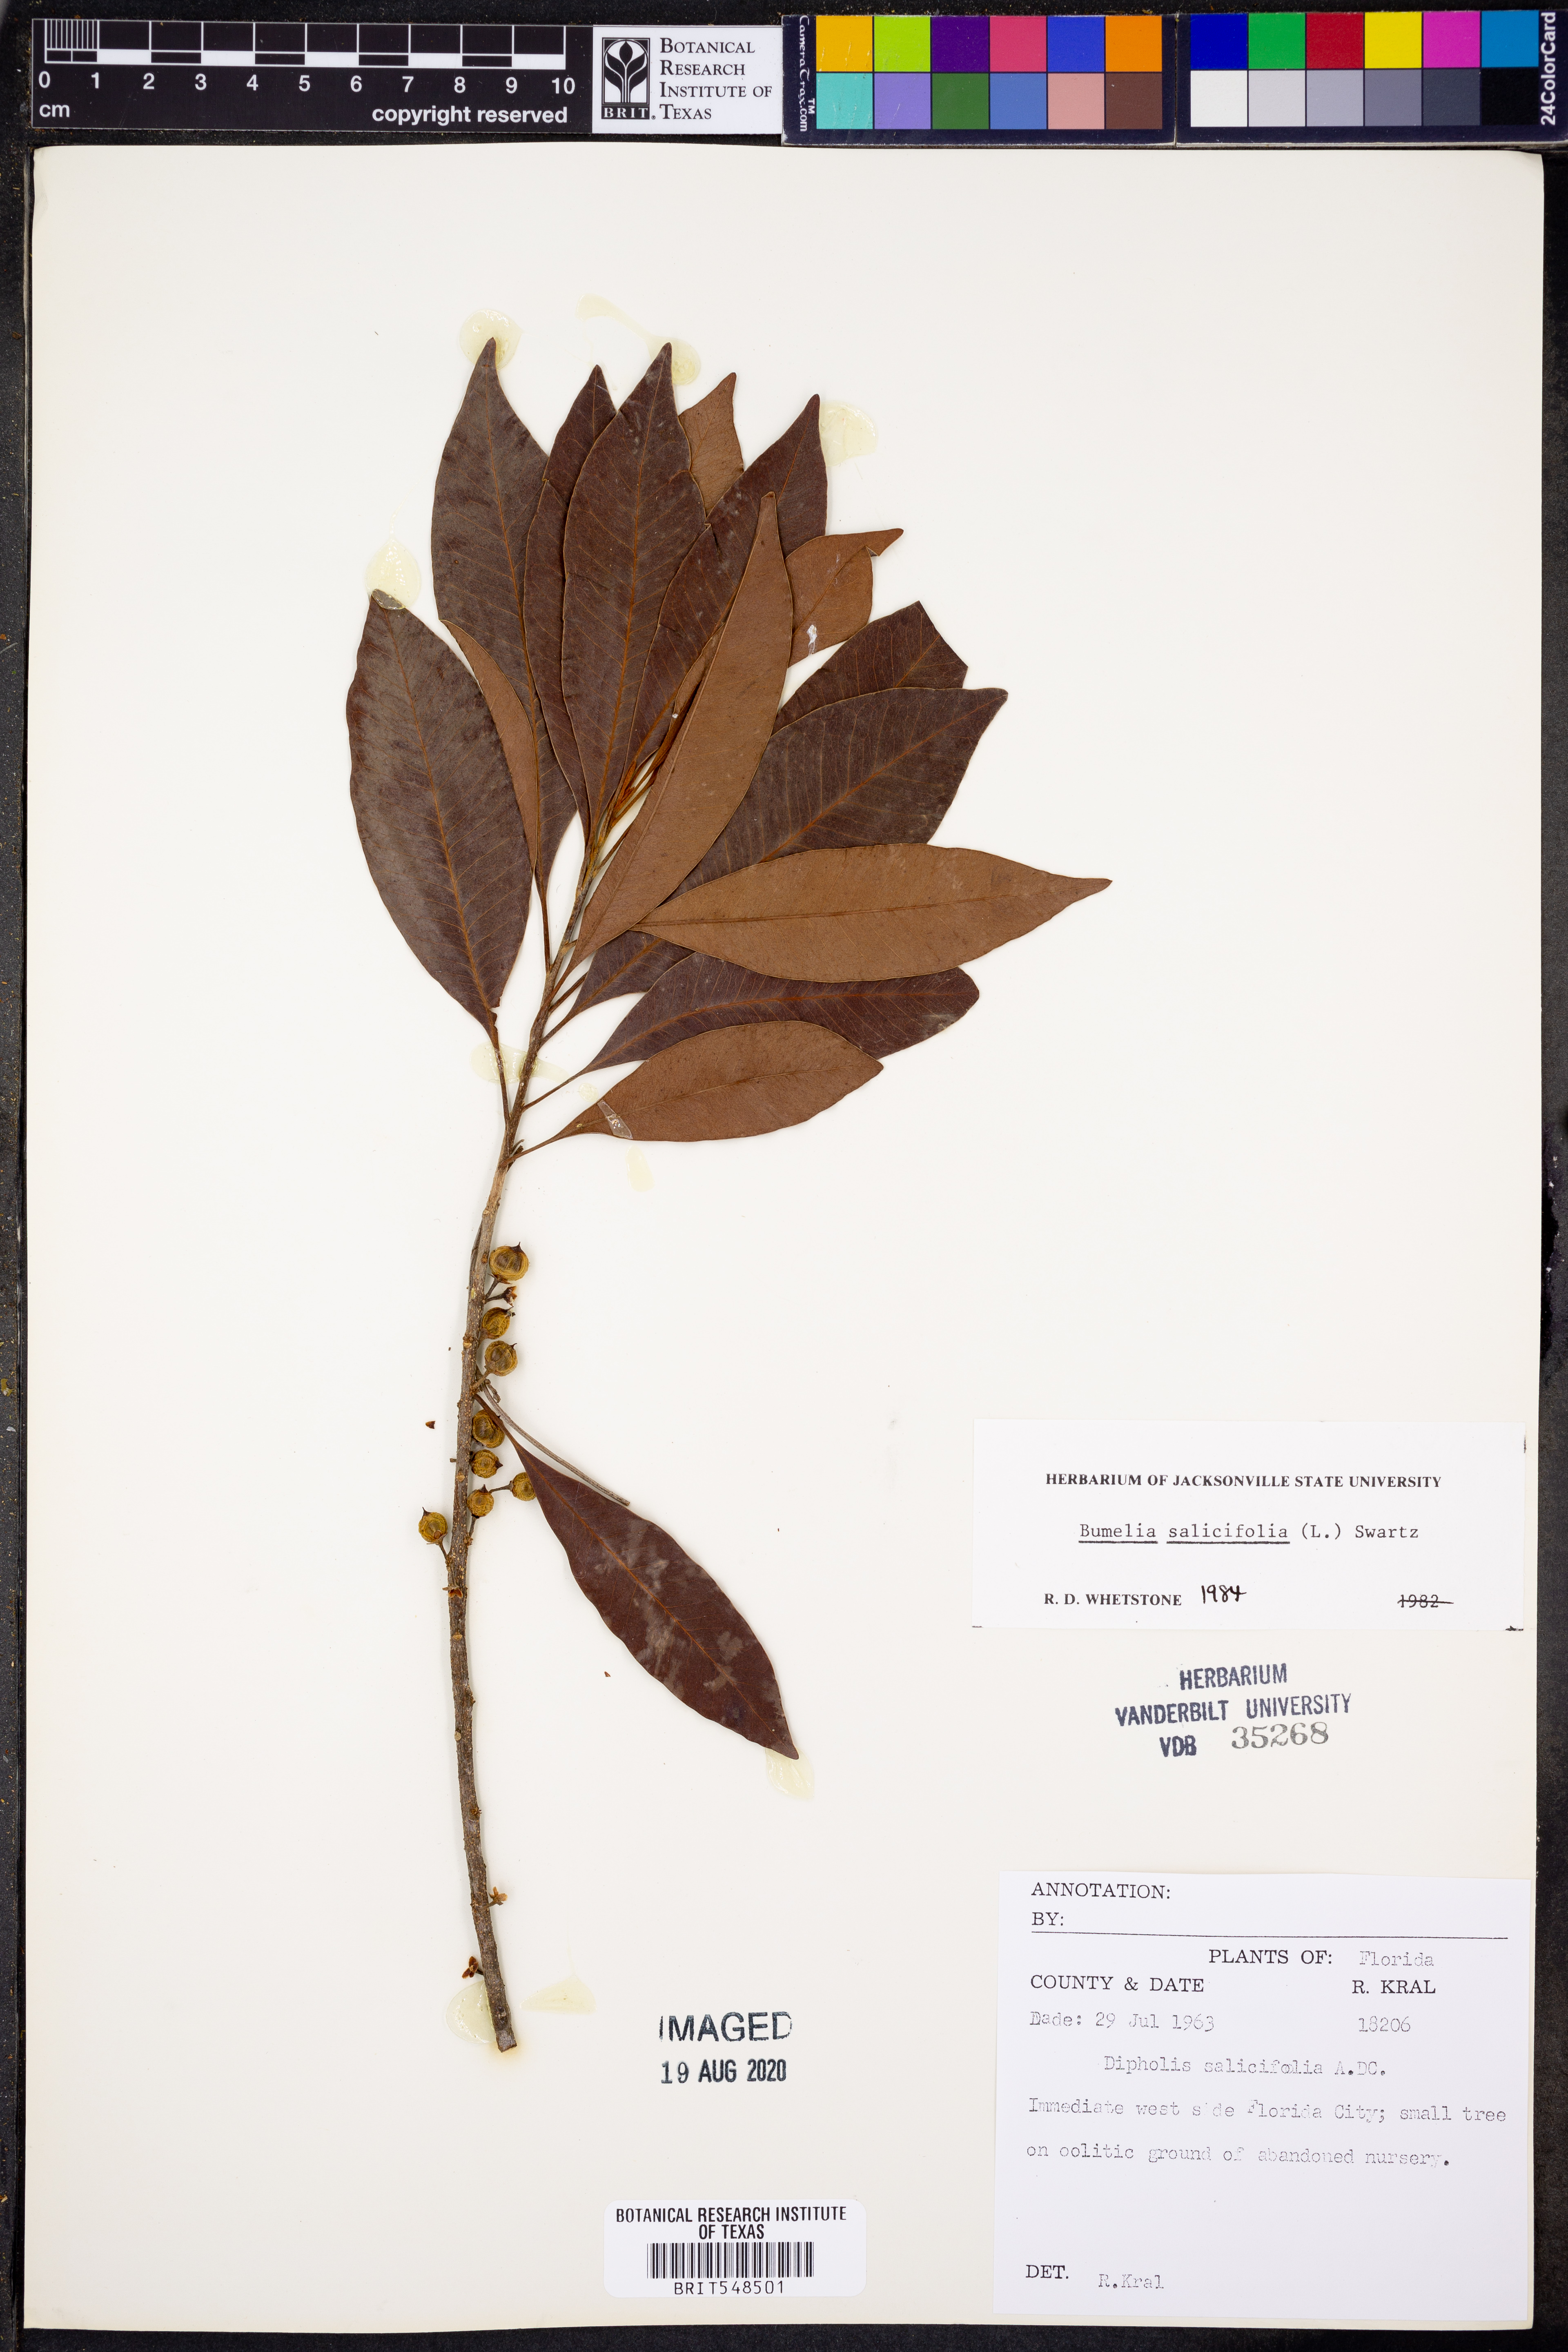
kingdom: Plantae
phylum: Tracheophyta
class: Magnoliopsida
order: Ericales
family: Sapotaceae
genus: Sideroxylon
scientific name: Sideroxylon salicifolium
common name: White bully
